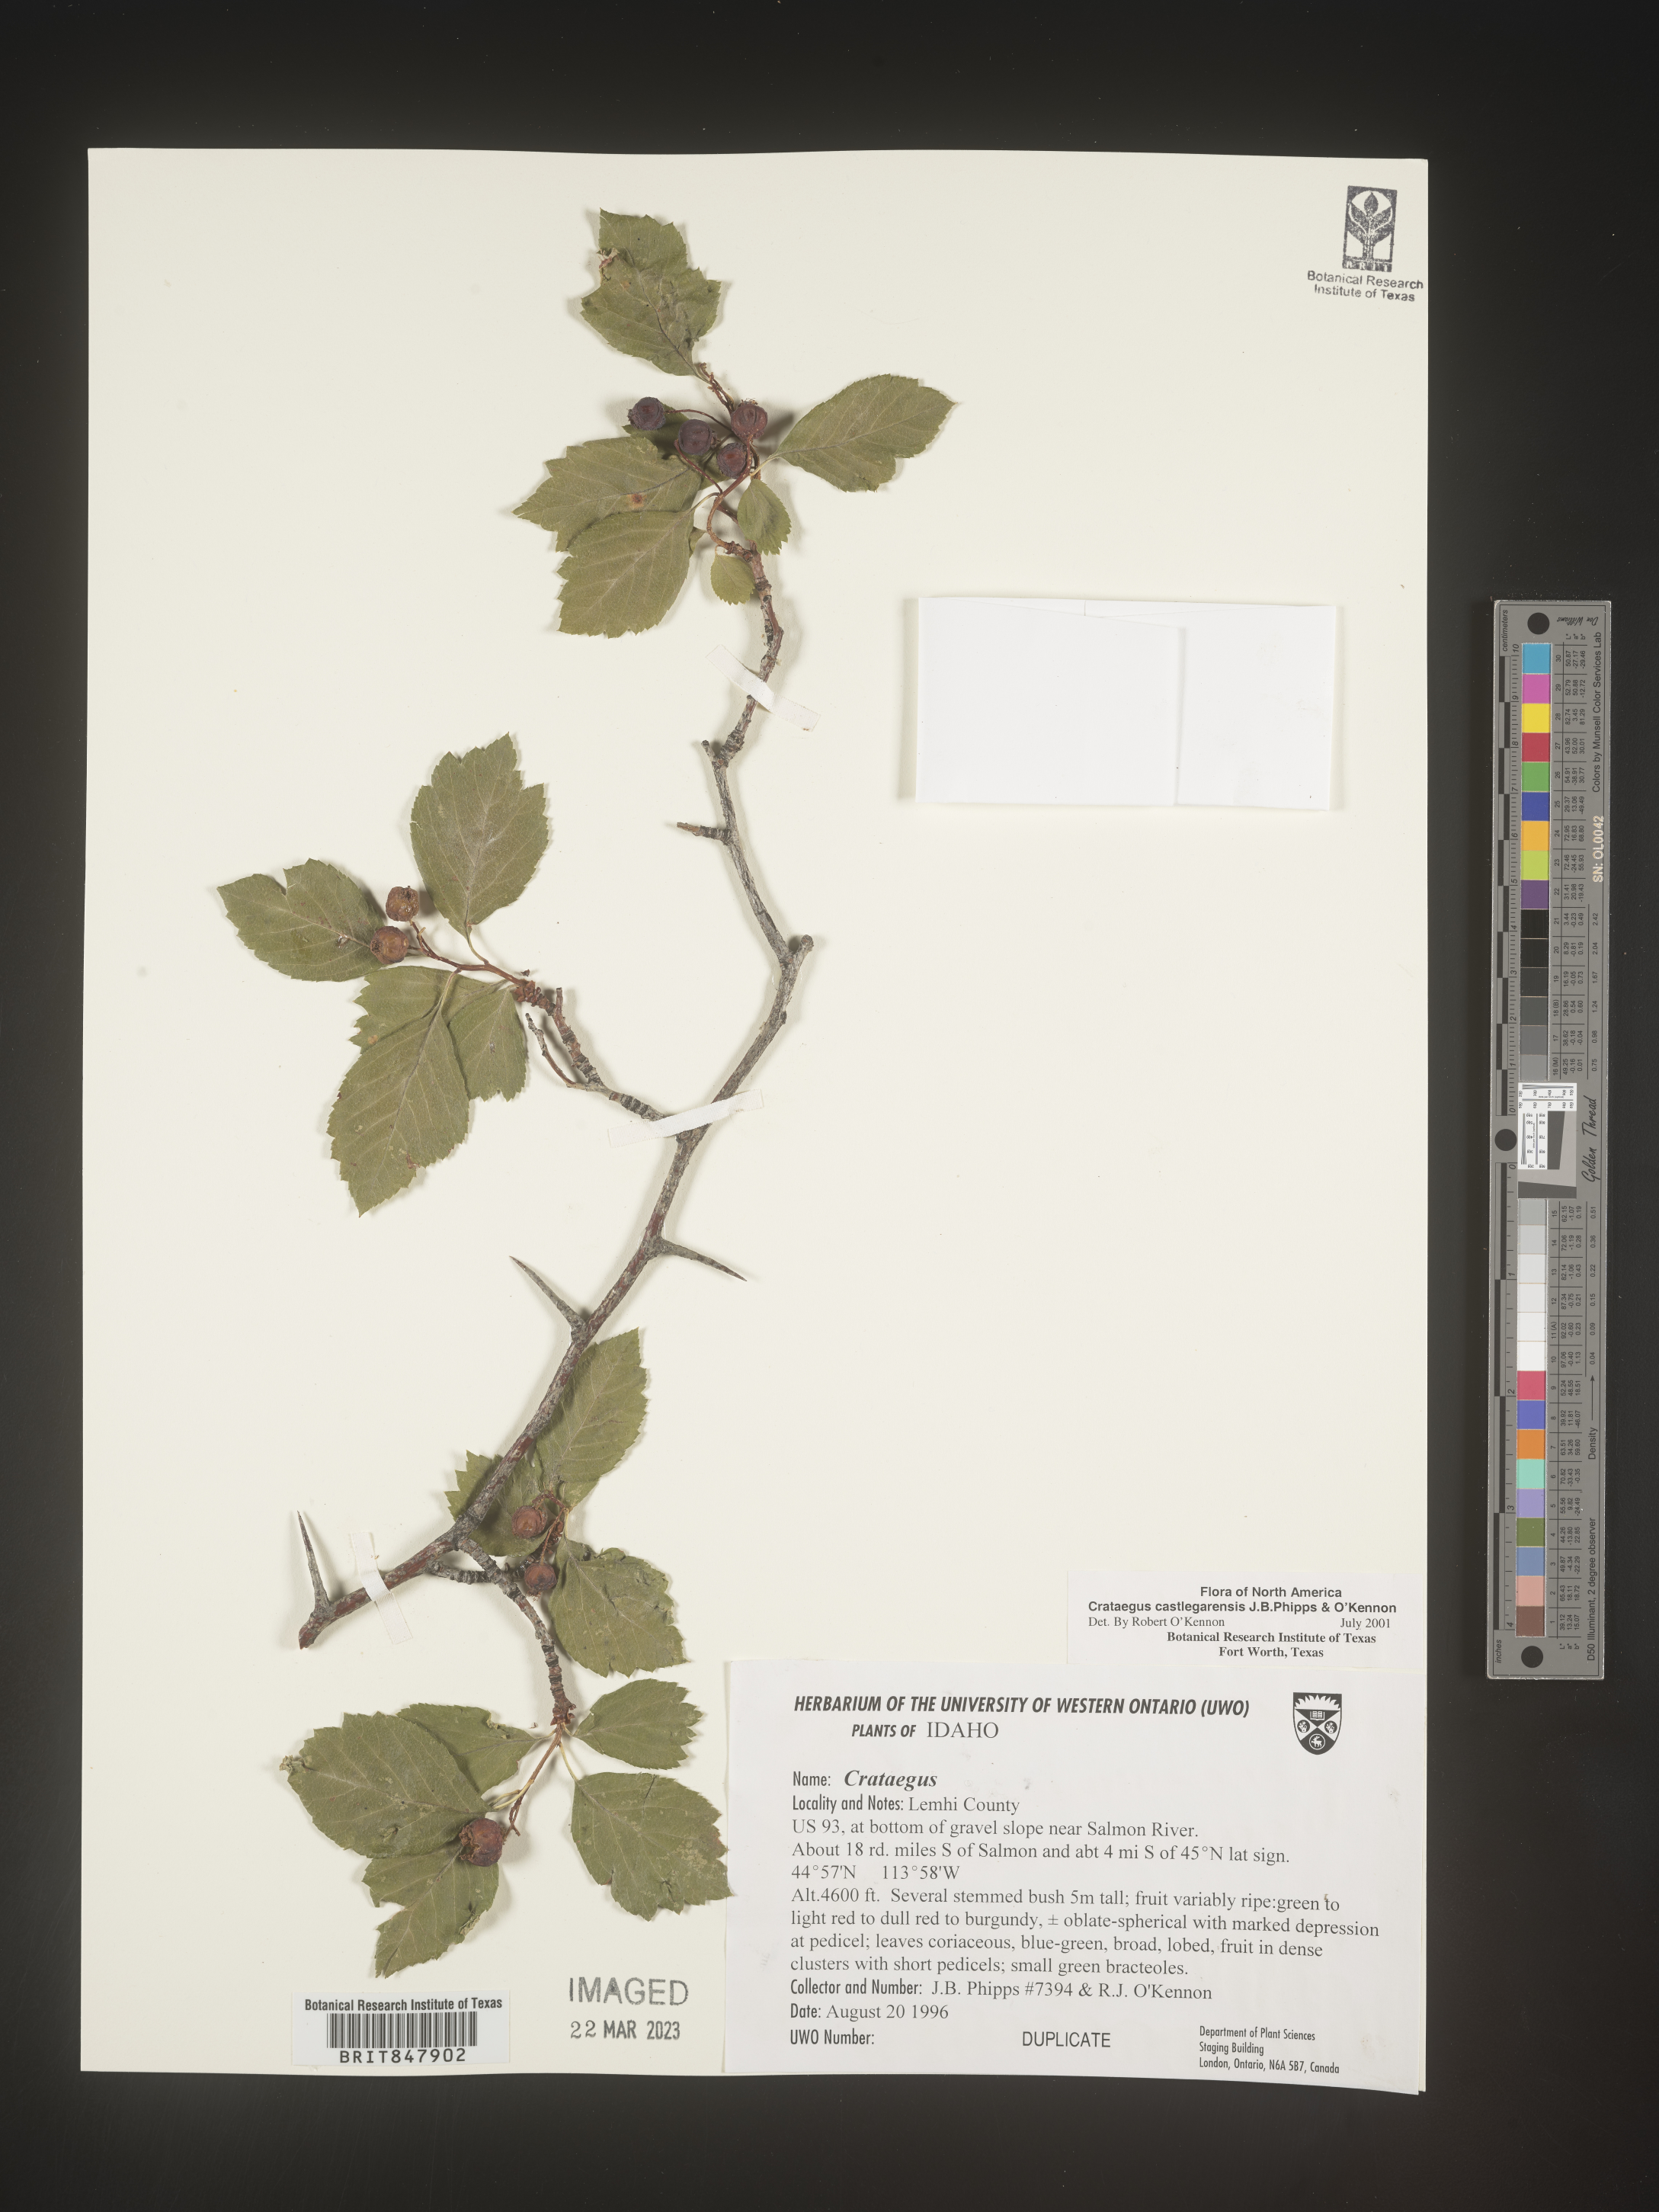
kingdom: Plantae
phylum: Tracheophyta
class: Magnoliopsida
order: Rosales
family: Rosaceae
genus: Crataegus
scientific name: Crataegus castlegarensis
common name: Castlegar hawthorn
